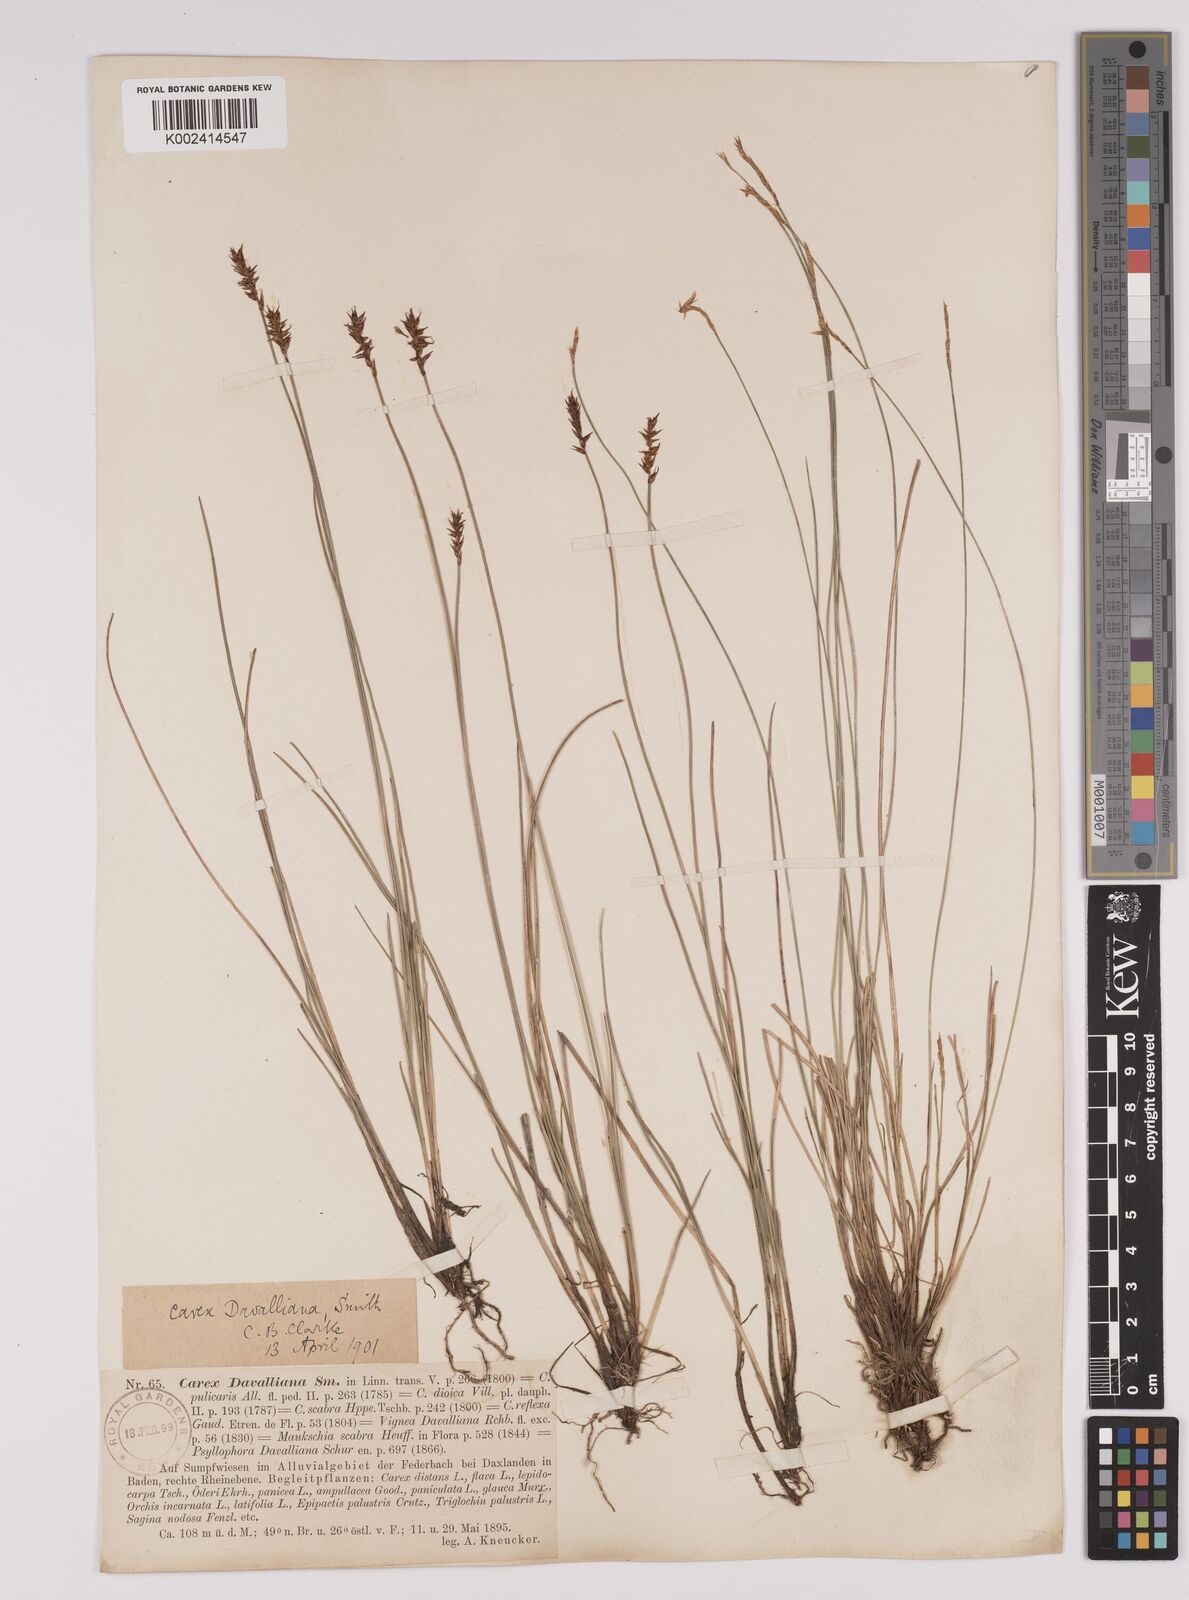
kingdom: Plantae
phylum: Tracheophyta
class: Liliopsida
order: Poales
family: Cyperaceae
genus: Carex
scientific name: Carex davalliana
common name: Davall's sedge
